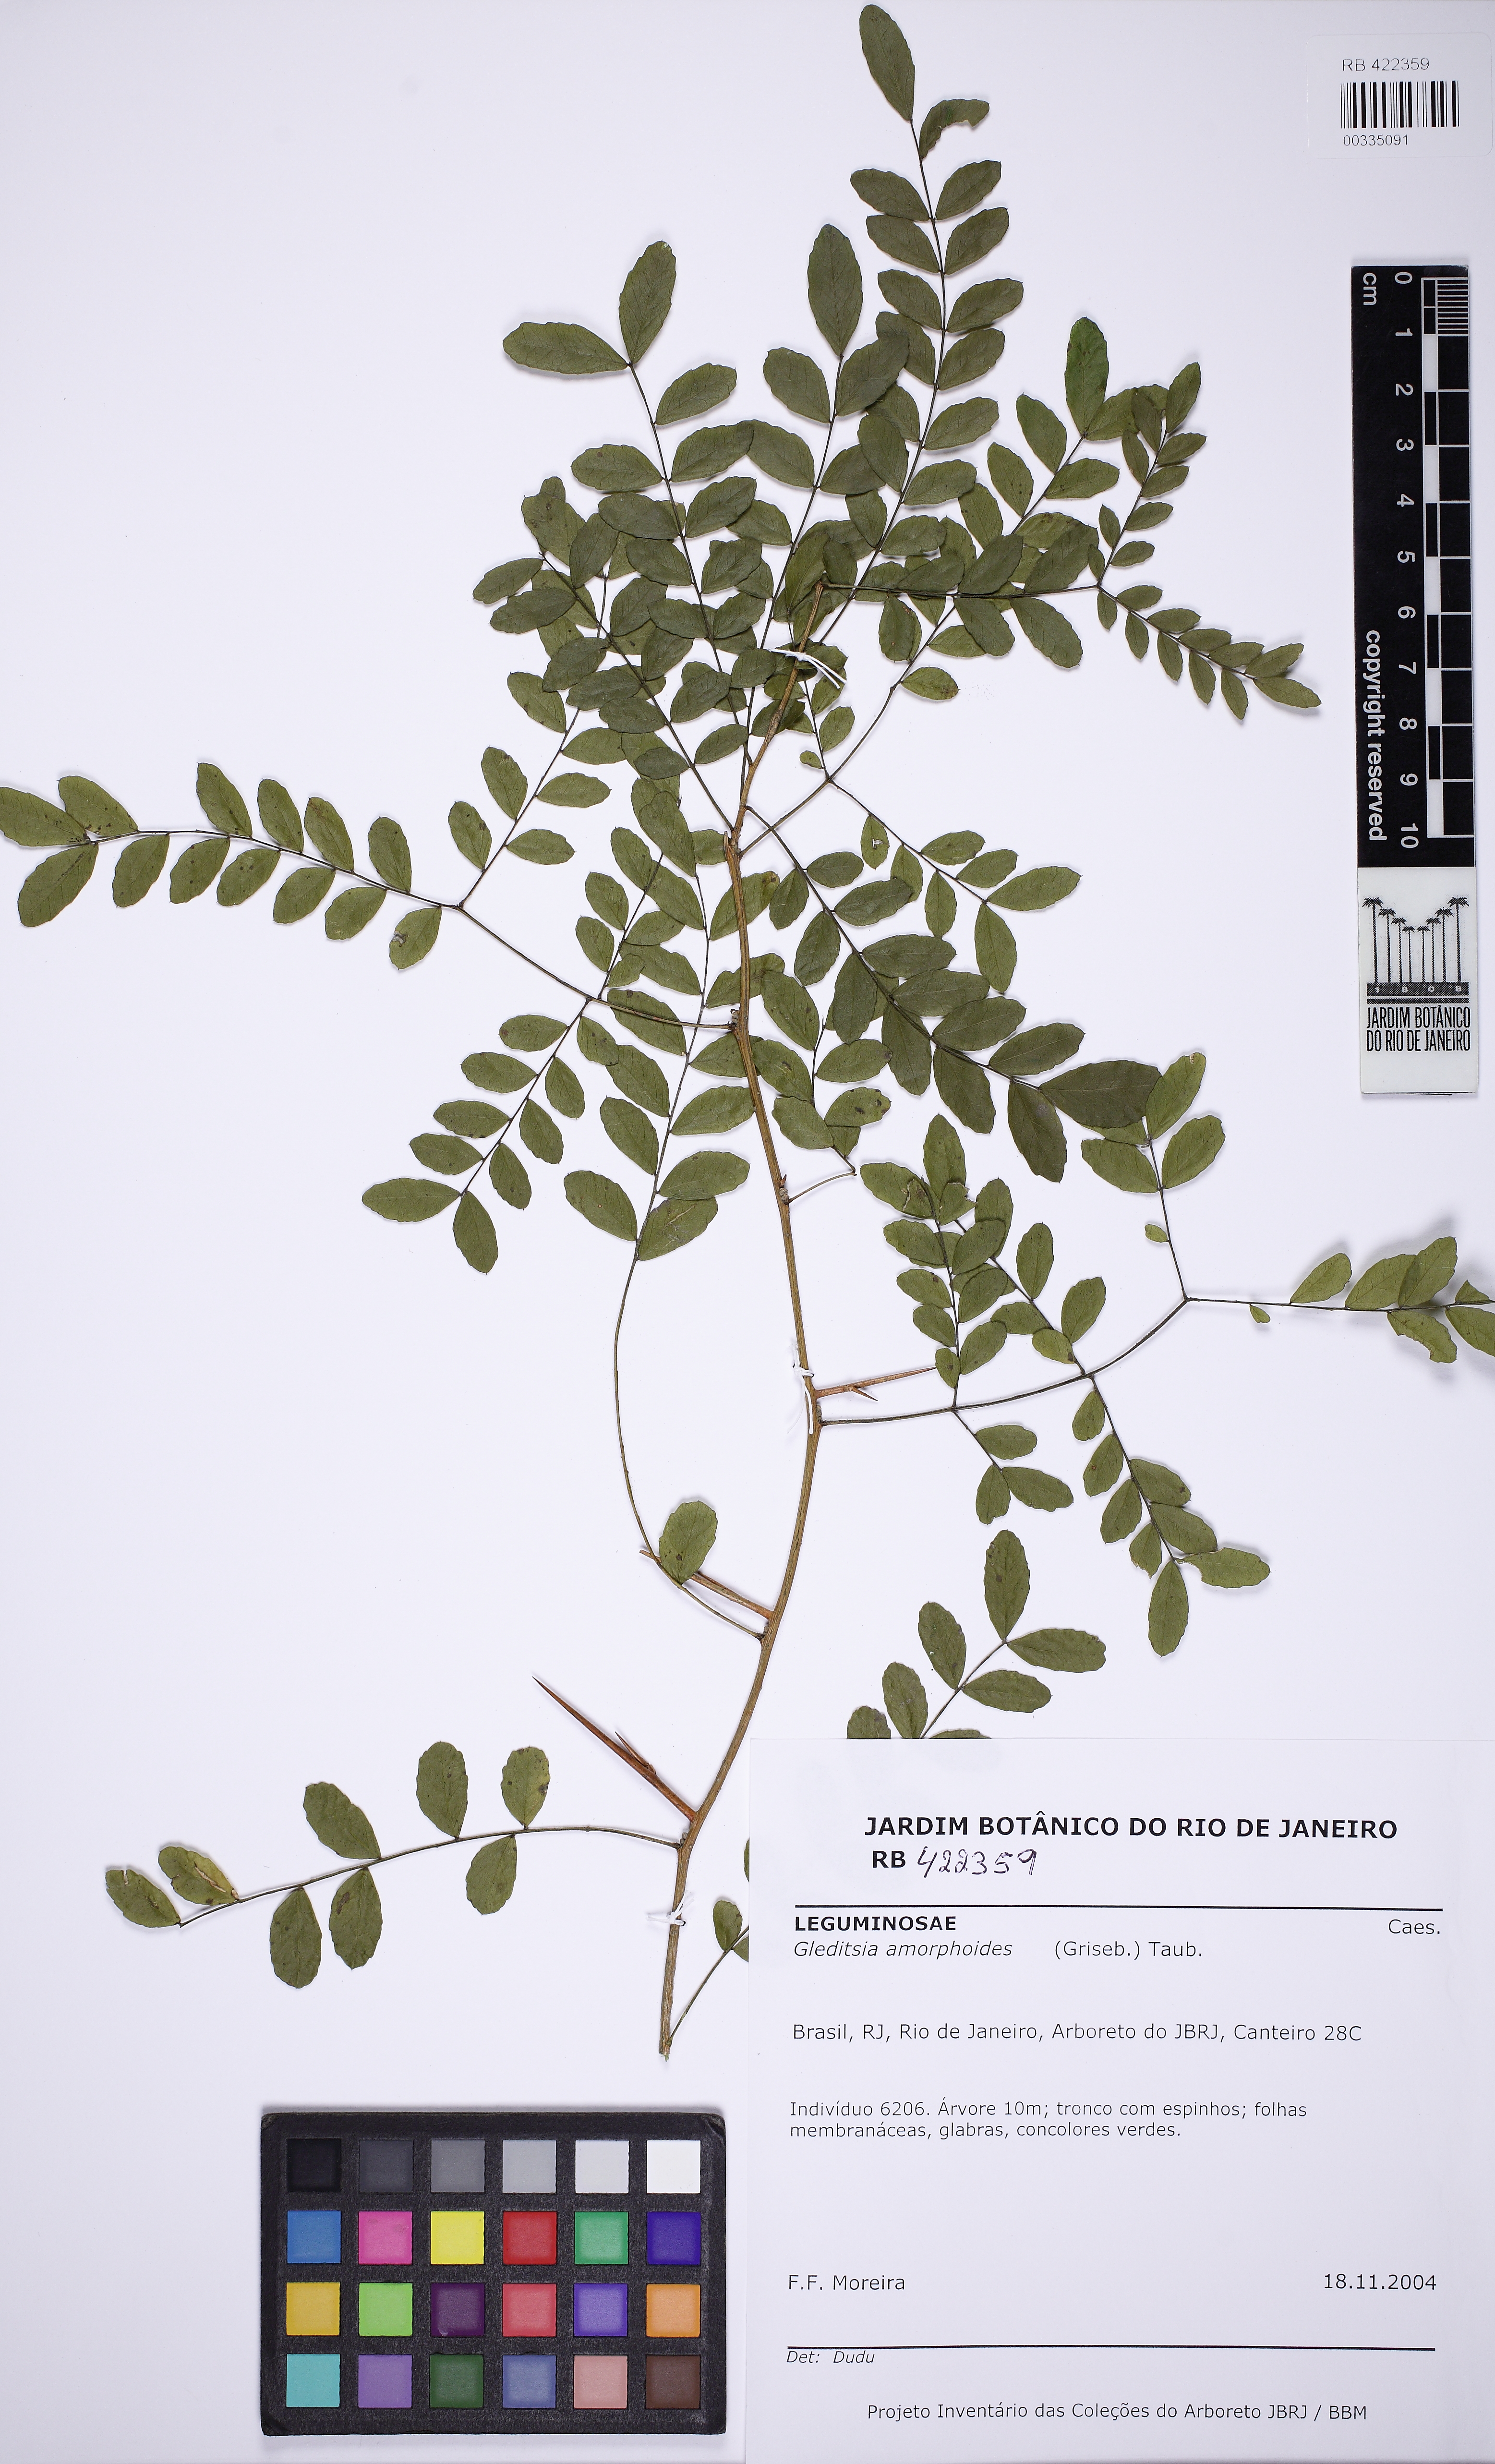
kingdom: Plantae
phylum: Tracheophyta
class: Magnoliopsida
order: Fabales
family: Fabaceae
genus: Gleditsia
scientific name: Gleditsia amorphodes
